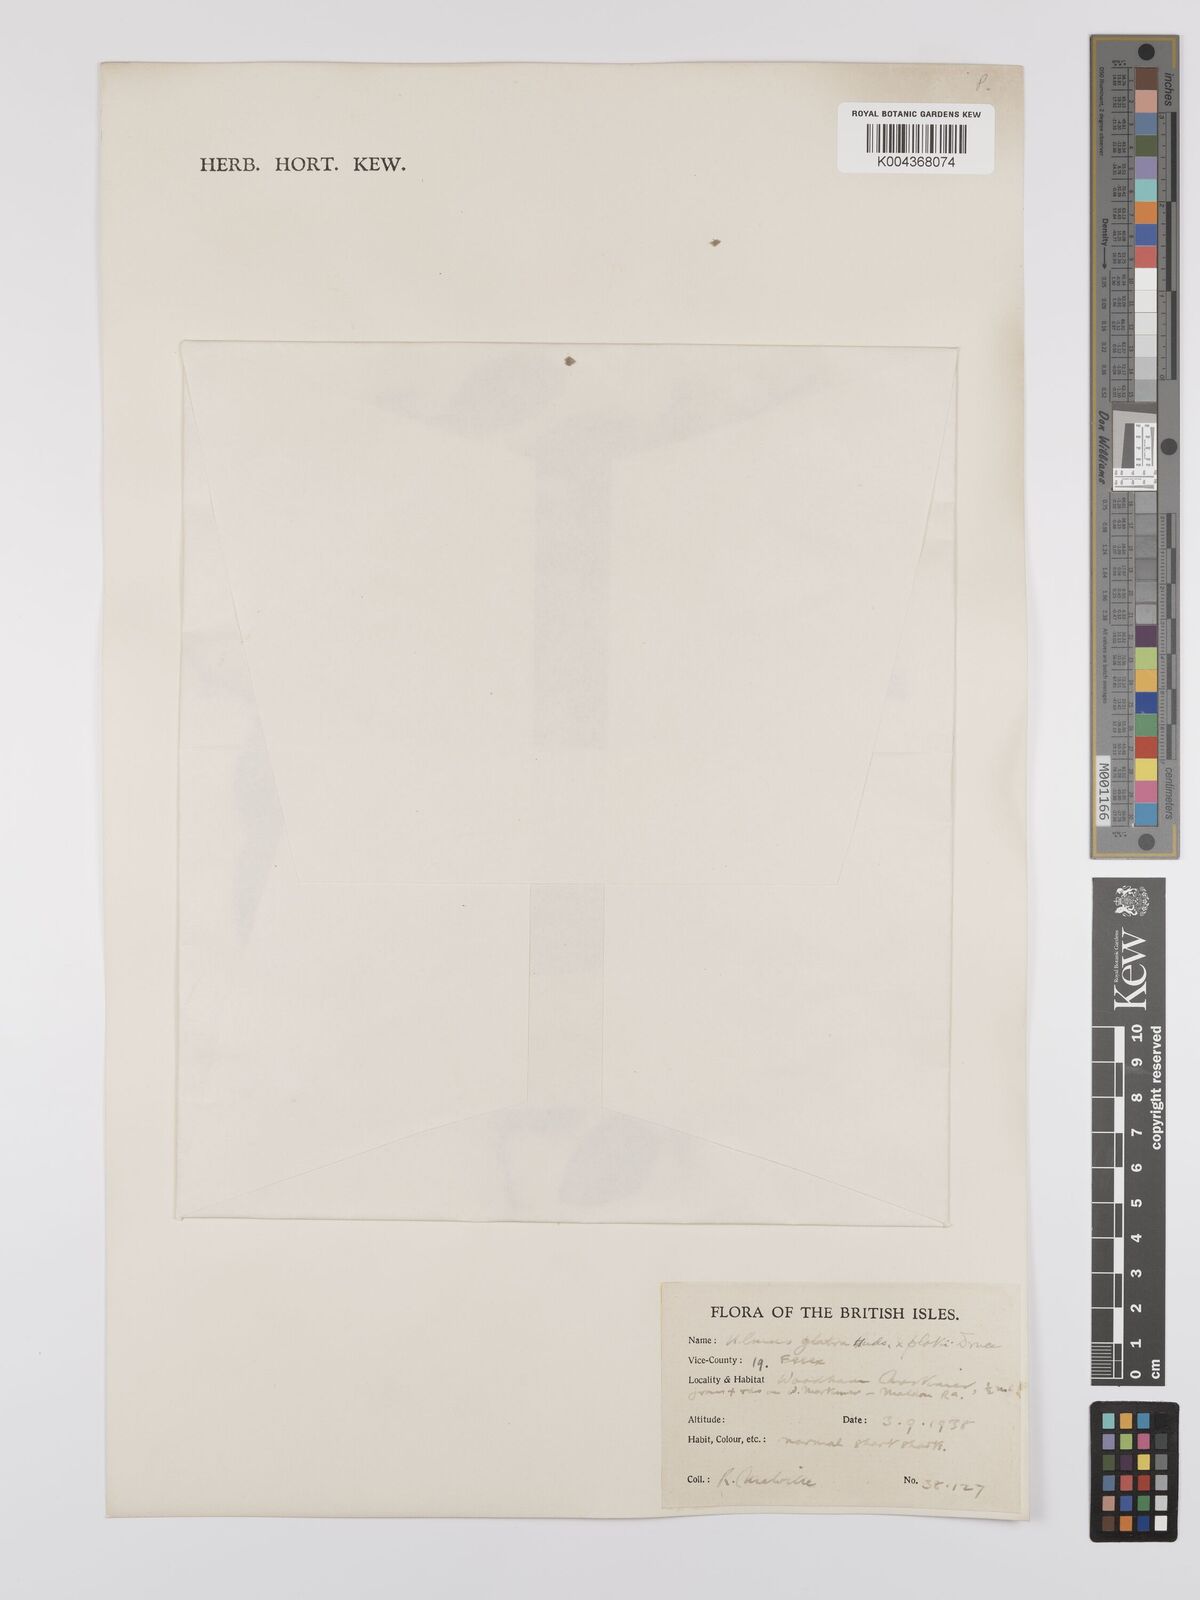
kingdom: Plantae
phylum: Tracheophyta
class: Magnoliopsida
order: Rosales
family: Ulmaceae
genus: Ulmus
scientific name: Ulmus
